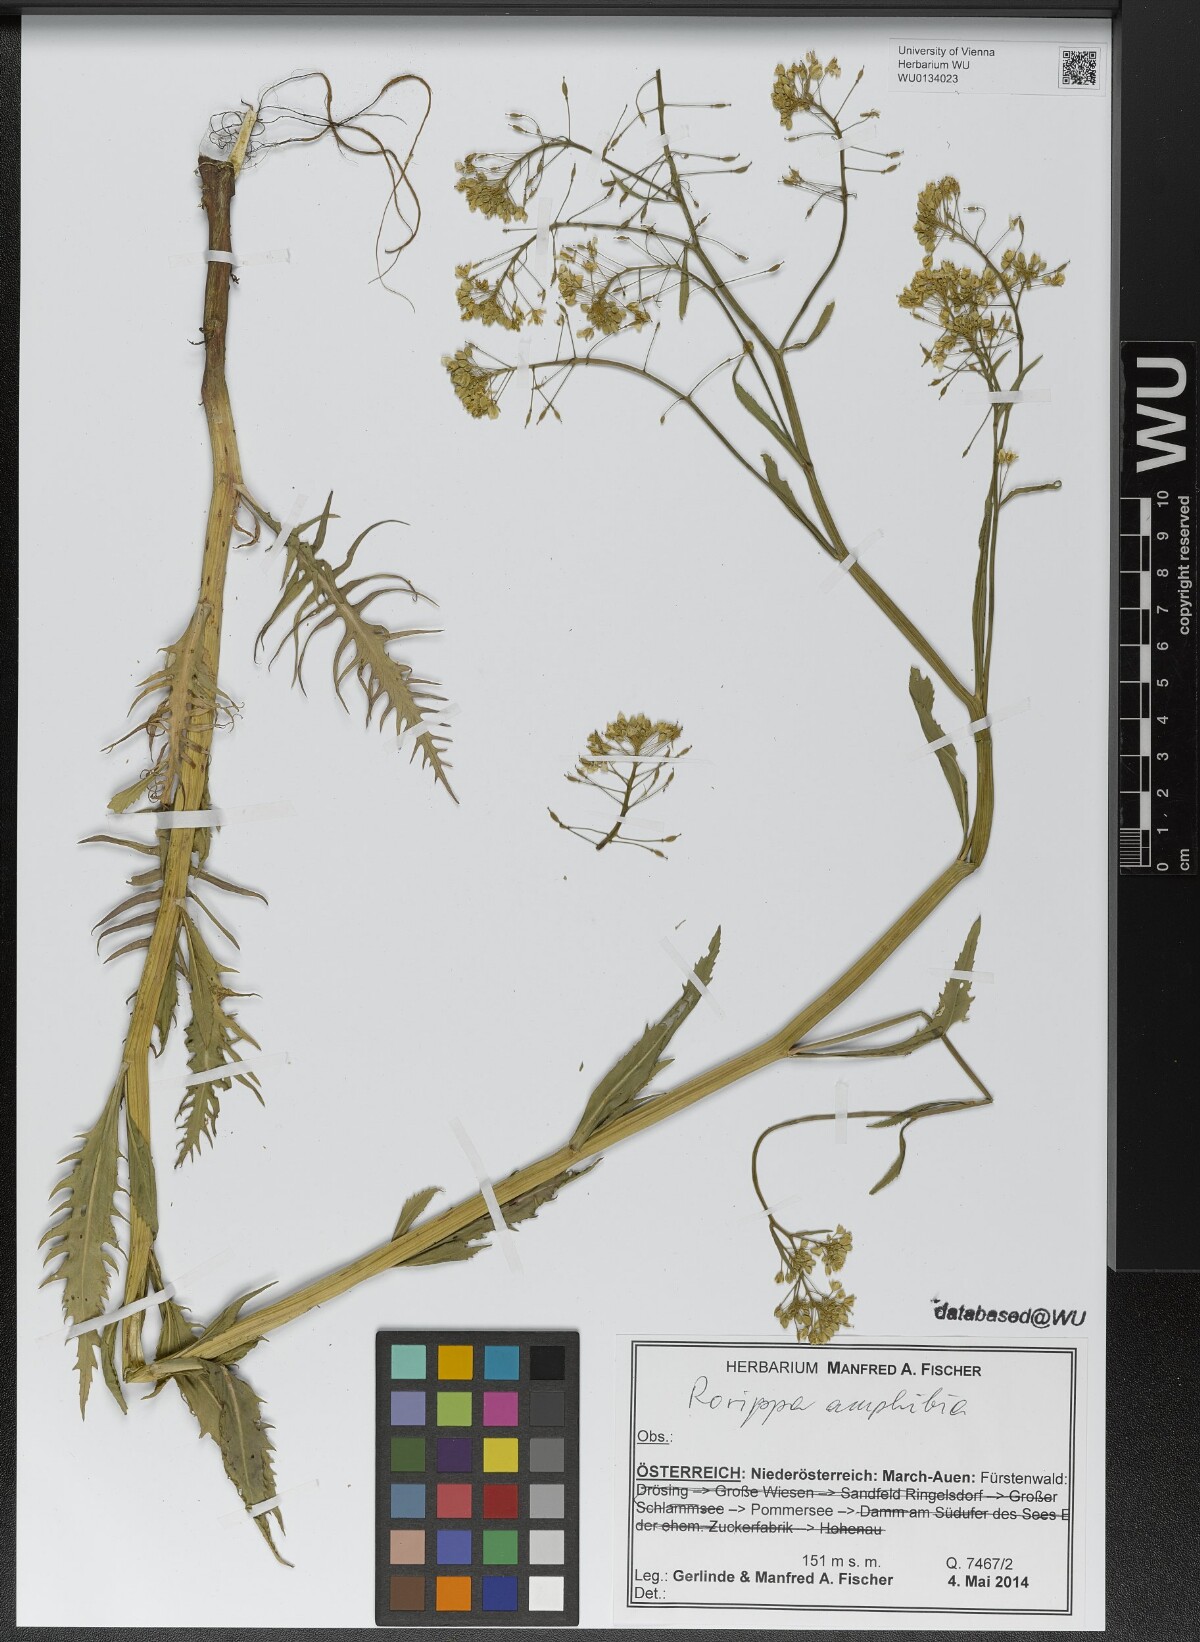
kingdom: Plantae
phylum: Tracheophyta
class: Magnoliopsida
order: Brassicales
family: Brassicaceae
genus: Rorippa
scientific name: Rorippa amphibia
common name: Great yellow-cress
